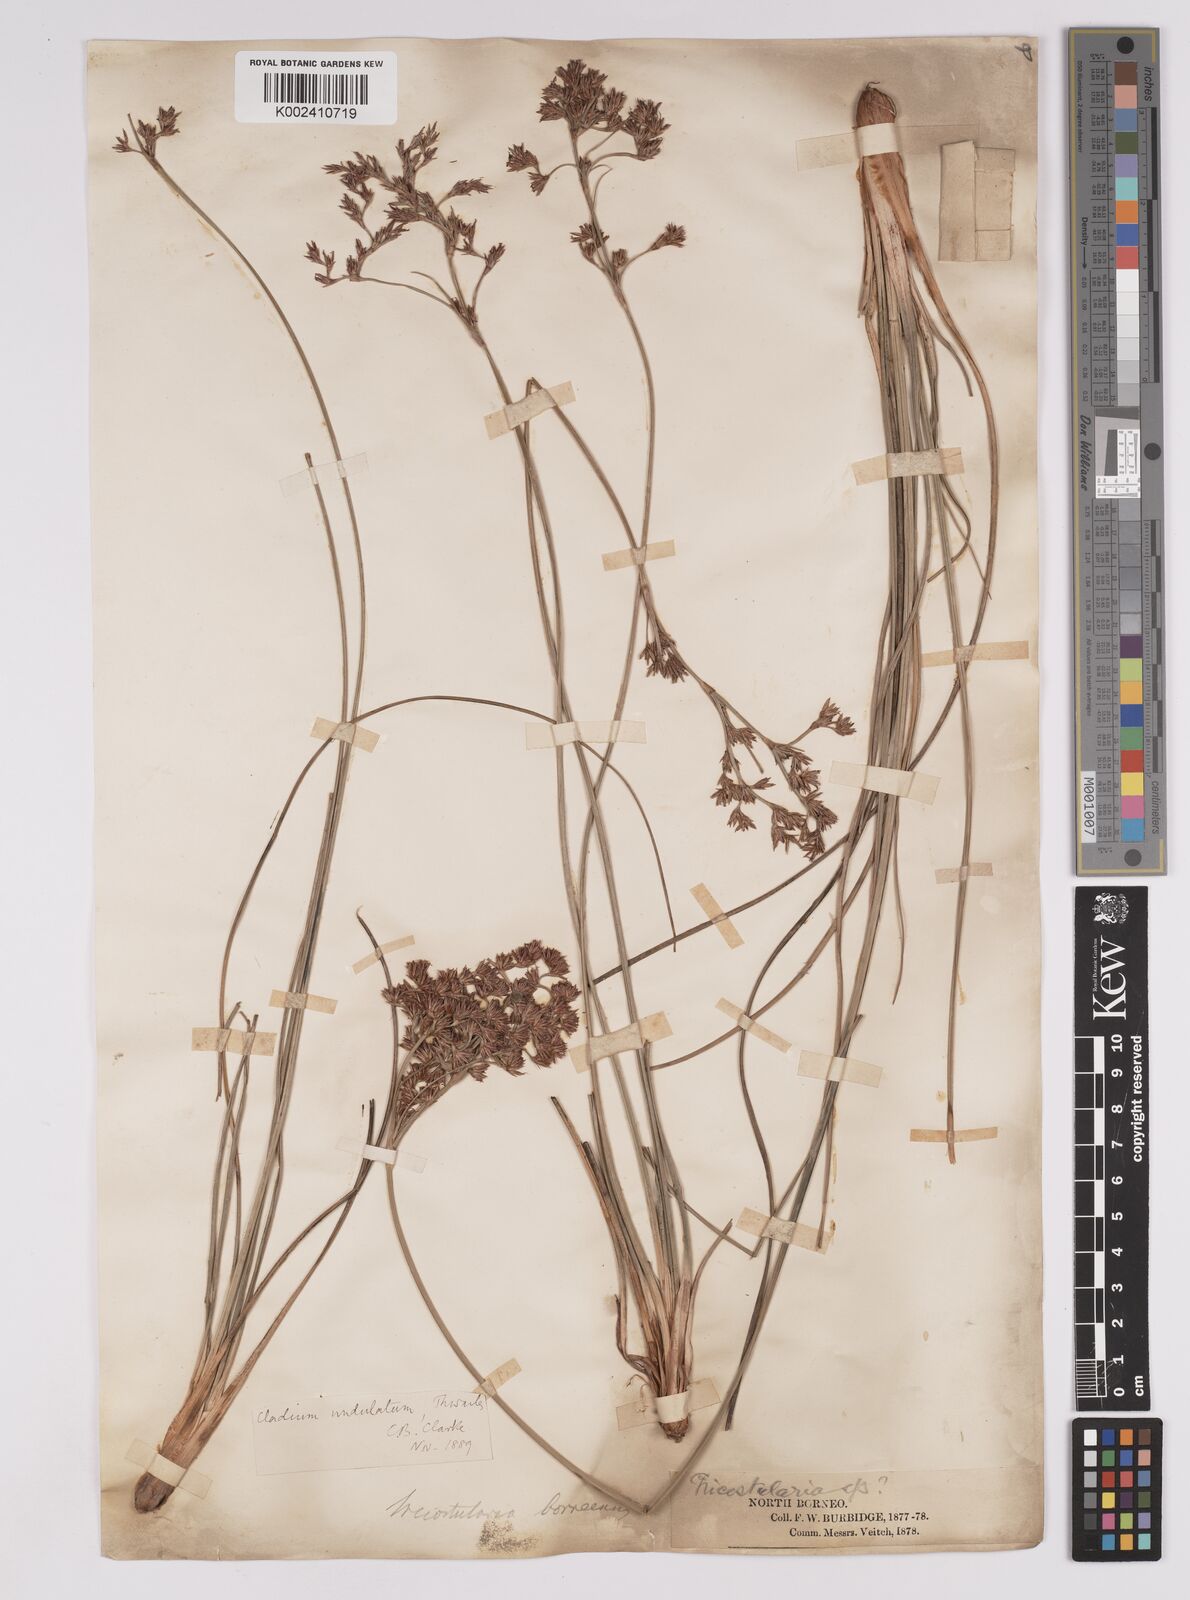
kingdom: Plantae
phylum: Tracheophyta
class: Liliopsida
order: Poales
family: Cyperaceae
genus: Anthelepis
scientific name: Anthelepis undulata
